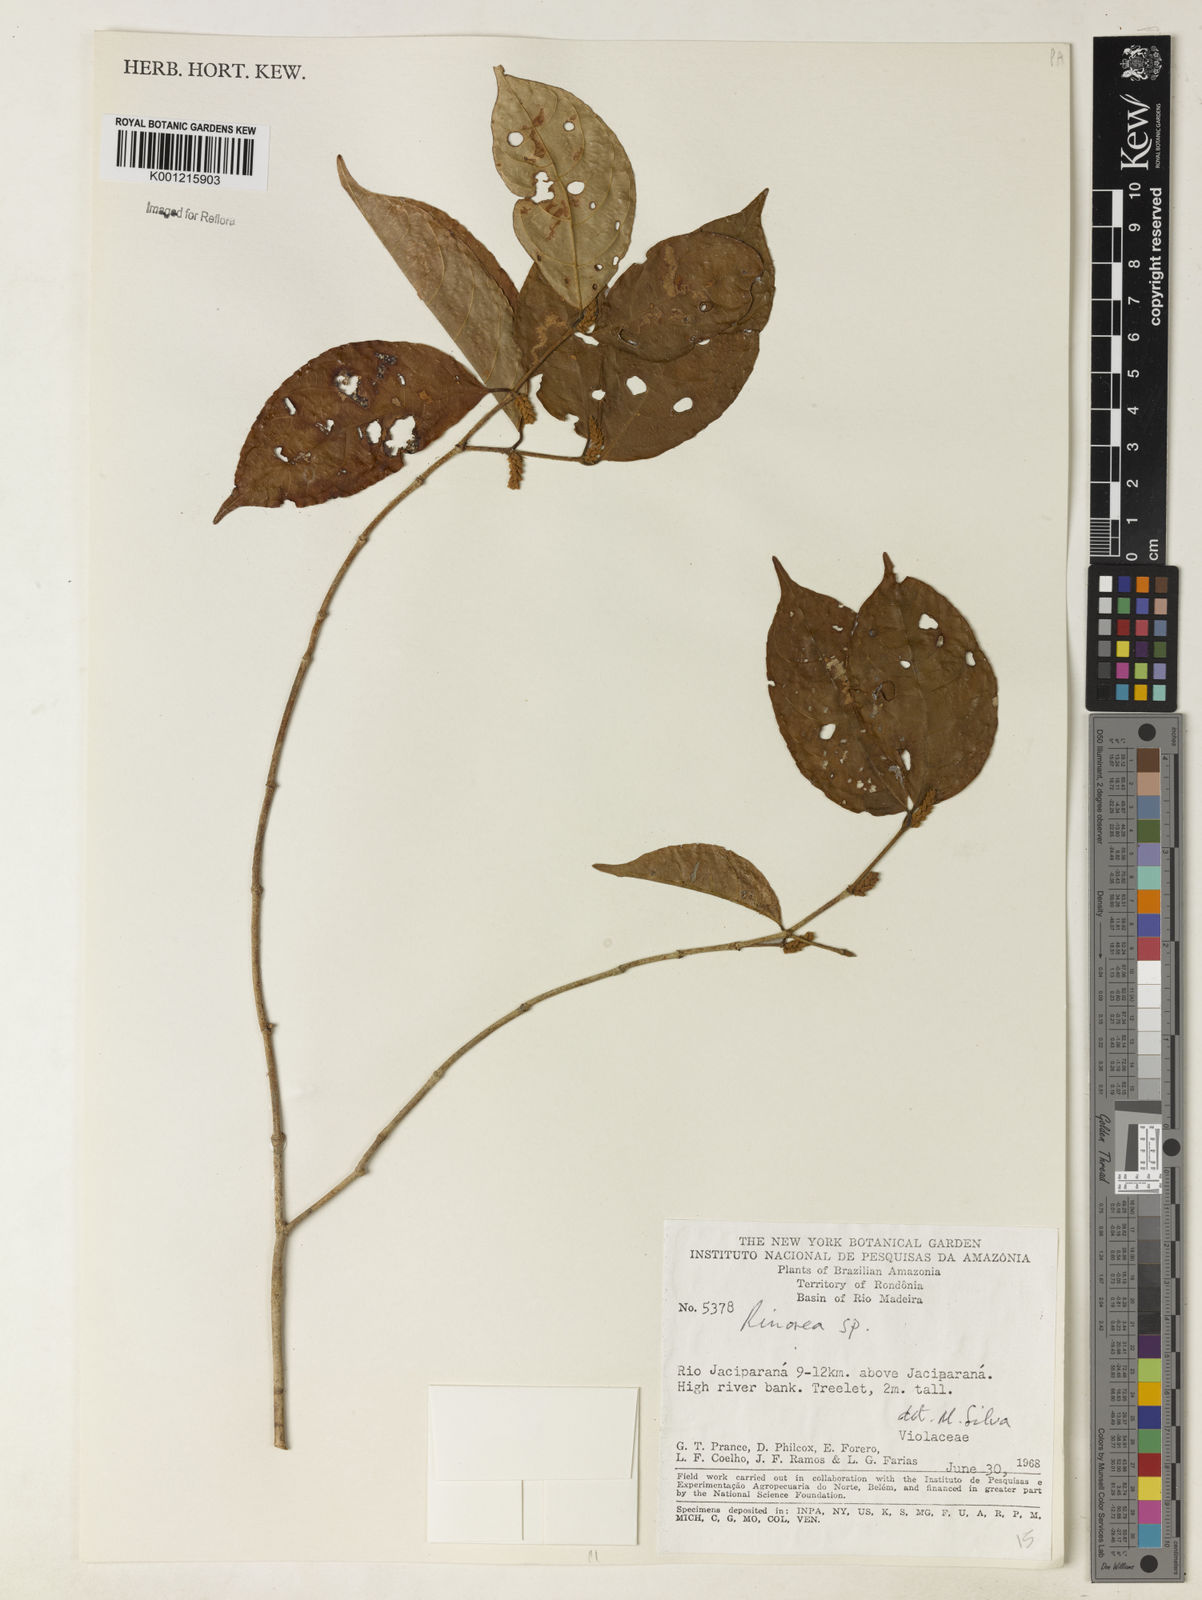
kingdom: Plantae
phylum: Tracheophyta
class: Magnoliopsida
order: Malpighiales
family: Violaceae
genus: Rinorea
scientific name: Rinorea
